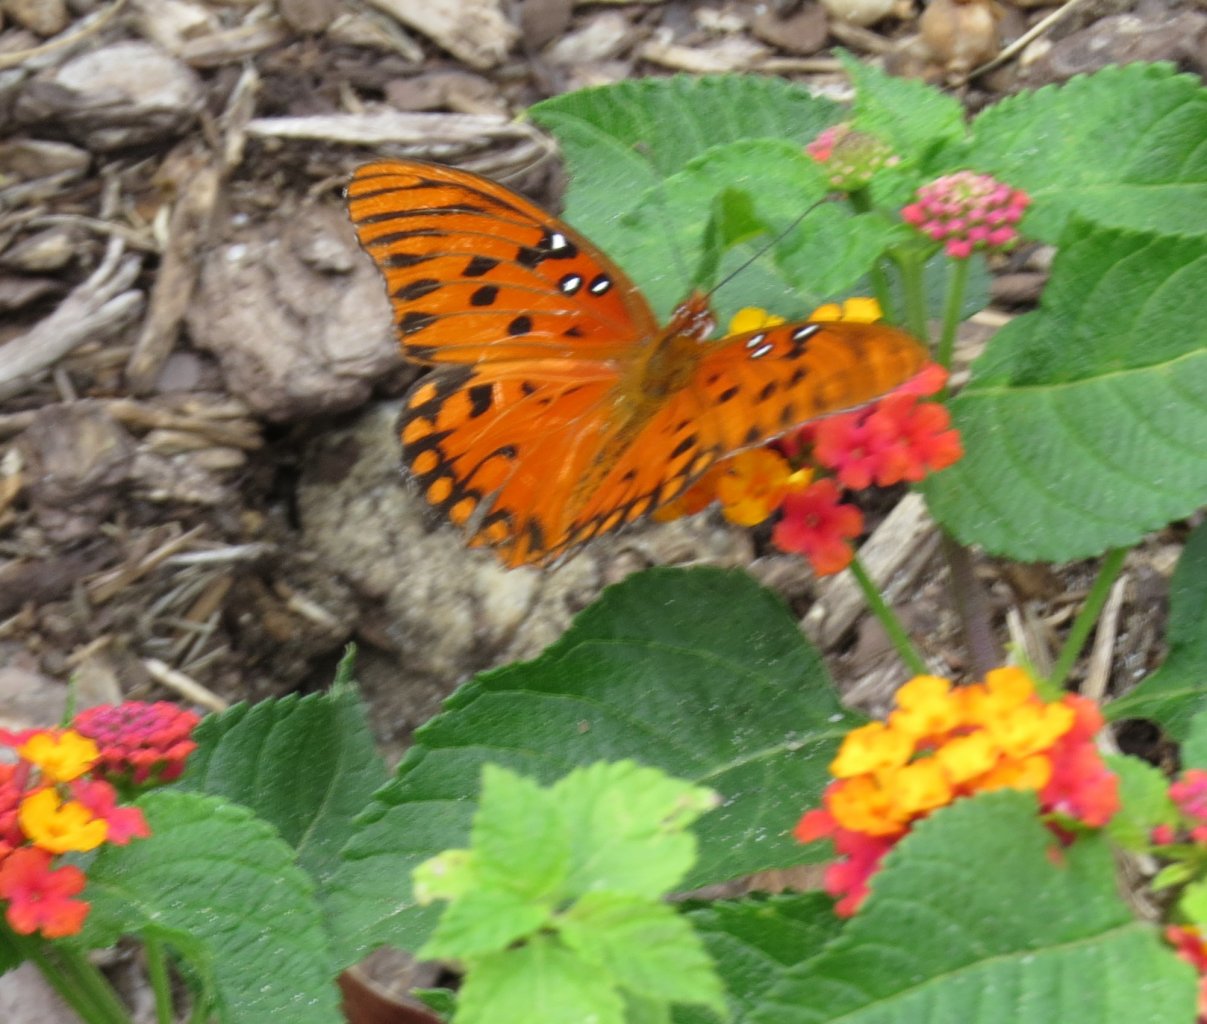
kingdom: Animalia
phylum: Arthropoda
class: Insecta
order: Lepidoptera
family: Nymphalidae
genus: Dione
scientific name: Dione vanillae
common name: Gulf Fritillary
